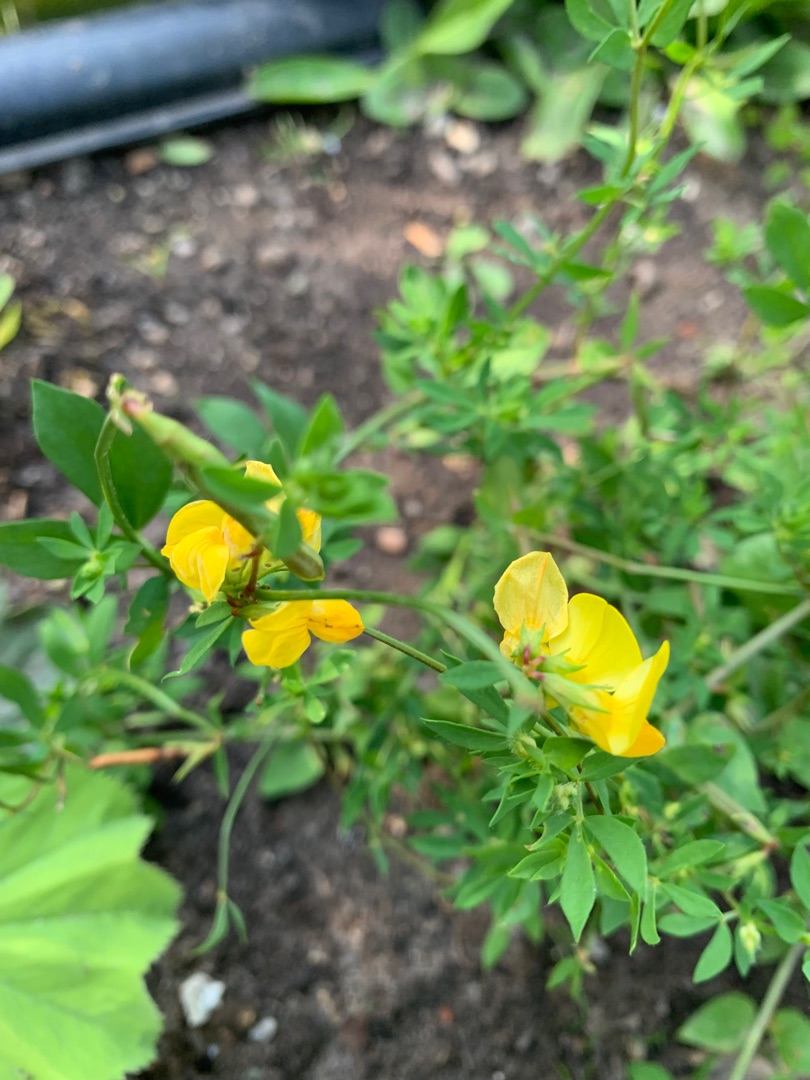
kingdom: Plantae
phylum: Tracheophyta
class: Magnoliopsida
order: Fabales
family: Fabaceae
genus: Lotus
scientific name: Lotus corniculatus
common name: Almindelig kællingetand
